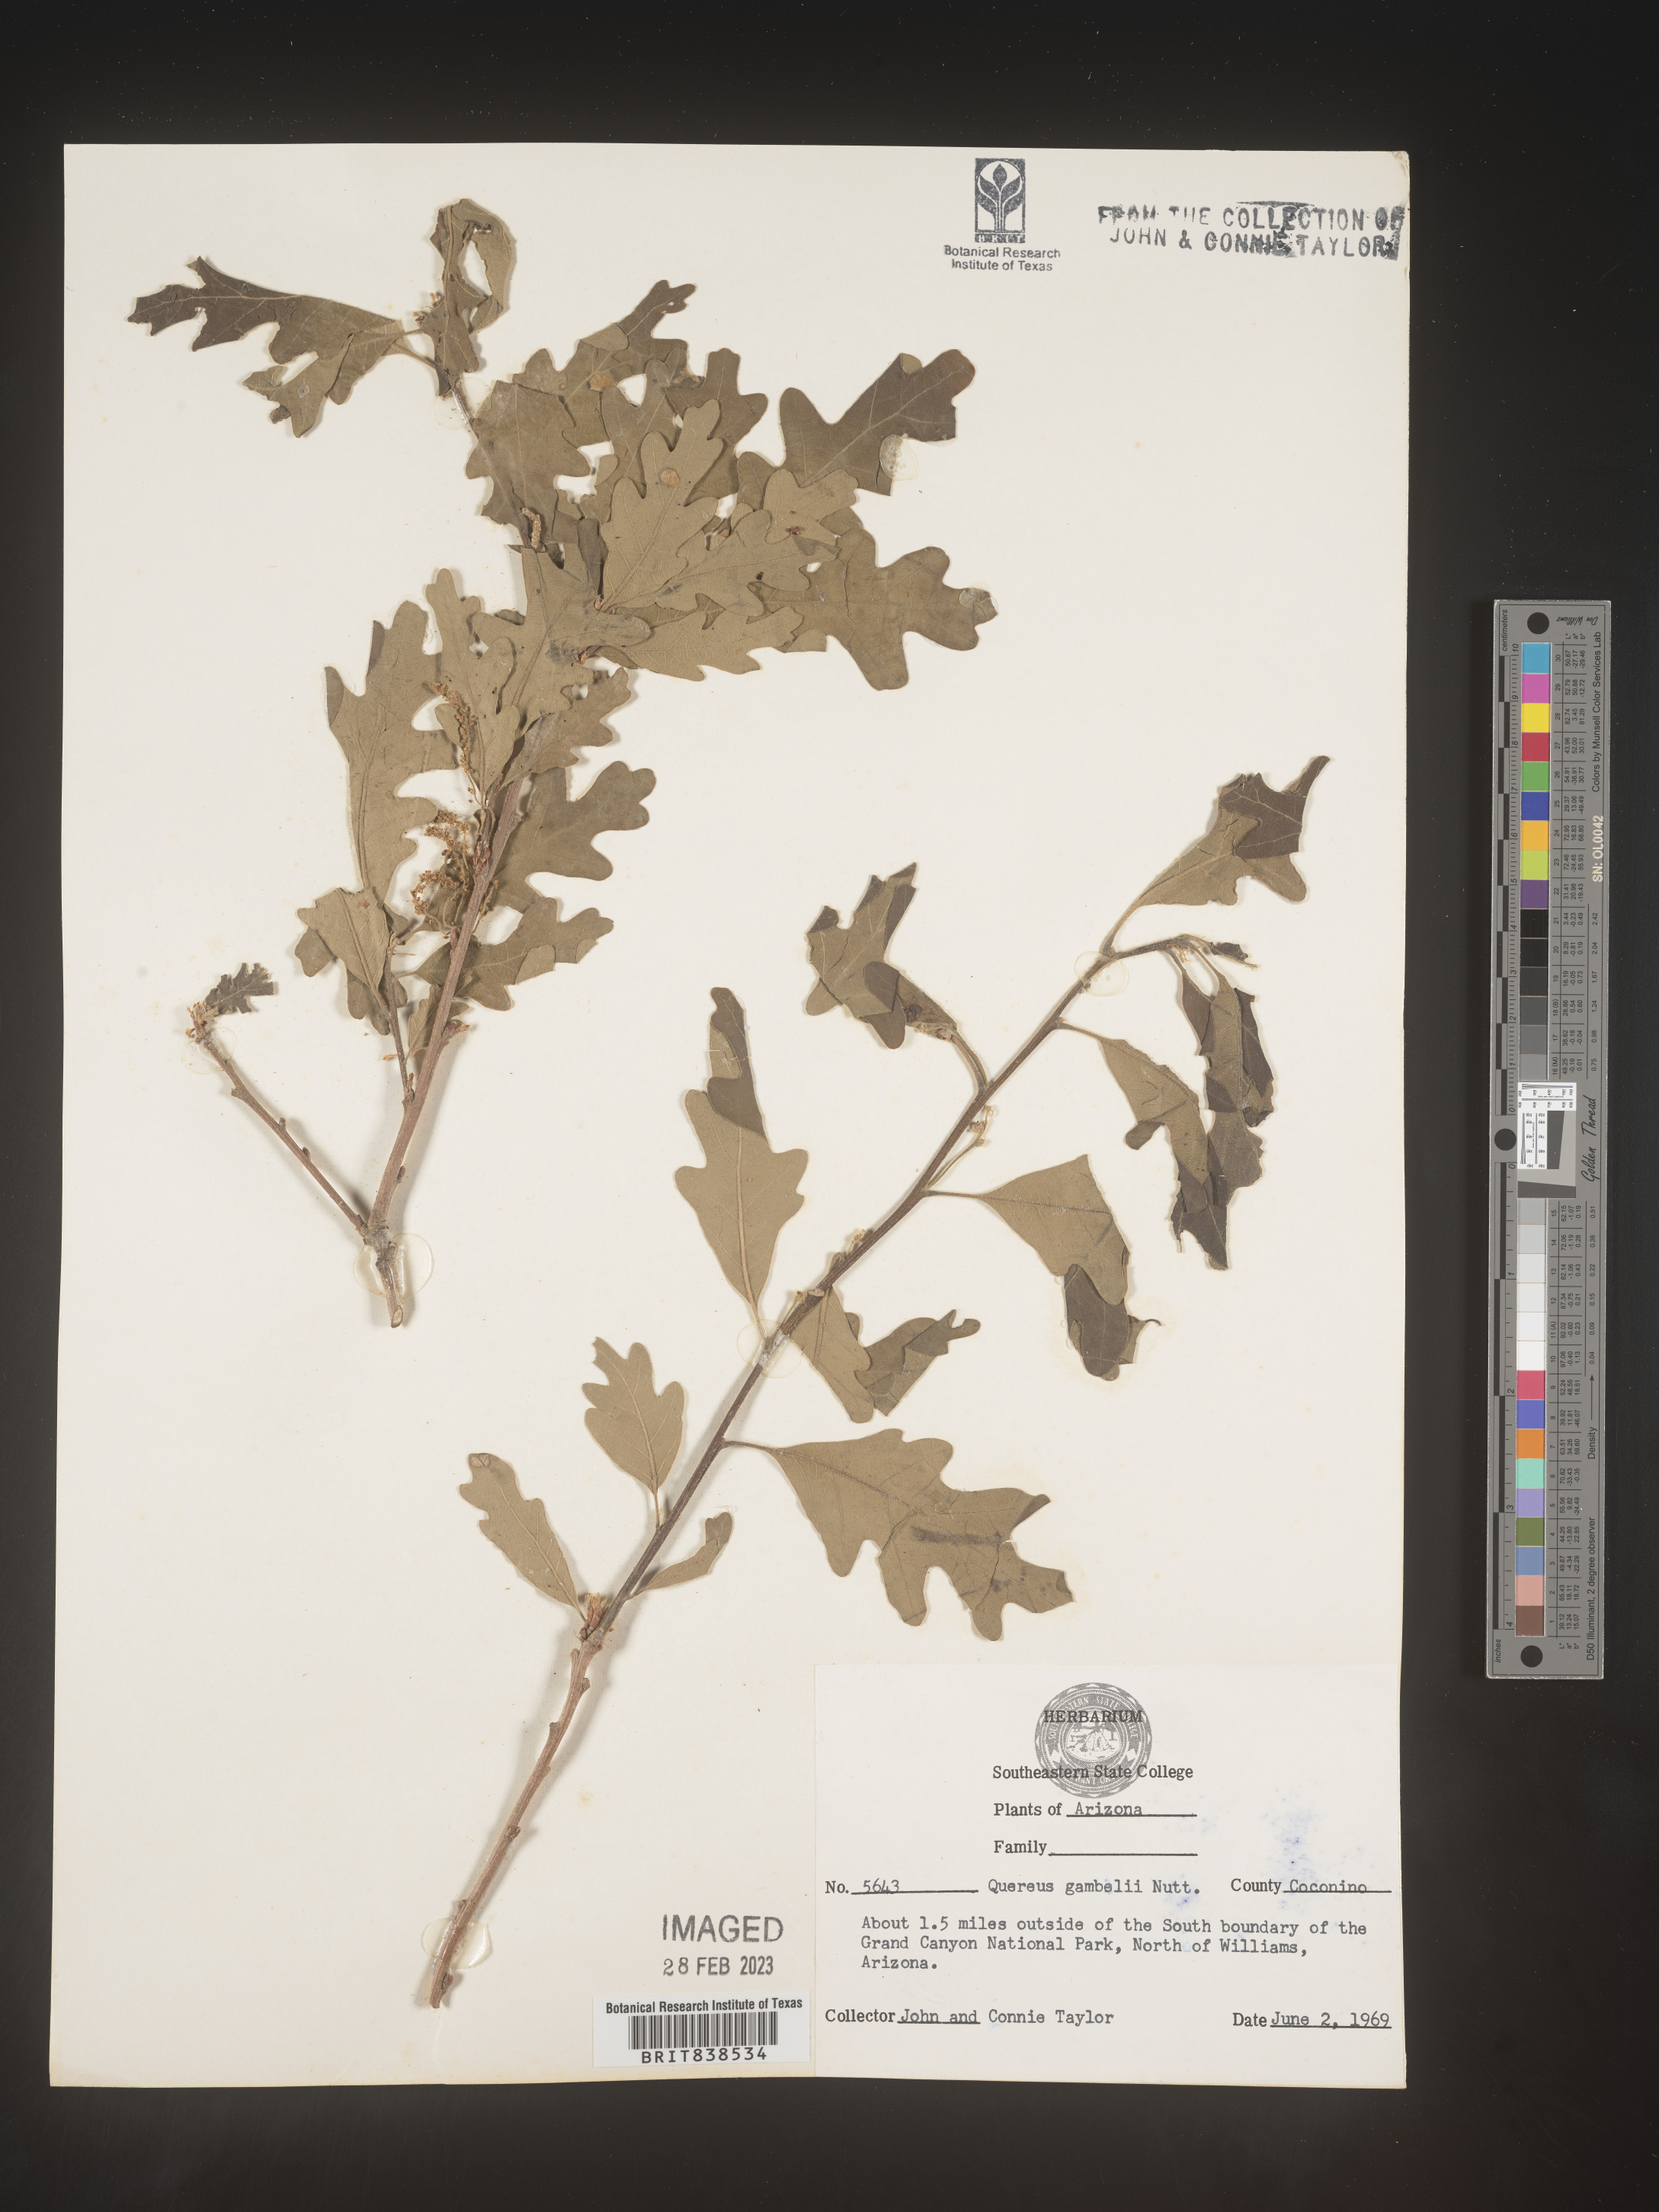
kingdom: Plantae
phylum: Tracheophyta
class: Magnoliopsida
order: Fagales
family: Fagaceae
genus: Quercus
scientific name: Quercus gambelii
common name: Gambel oak
